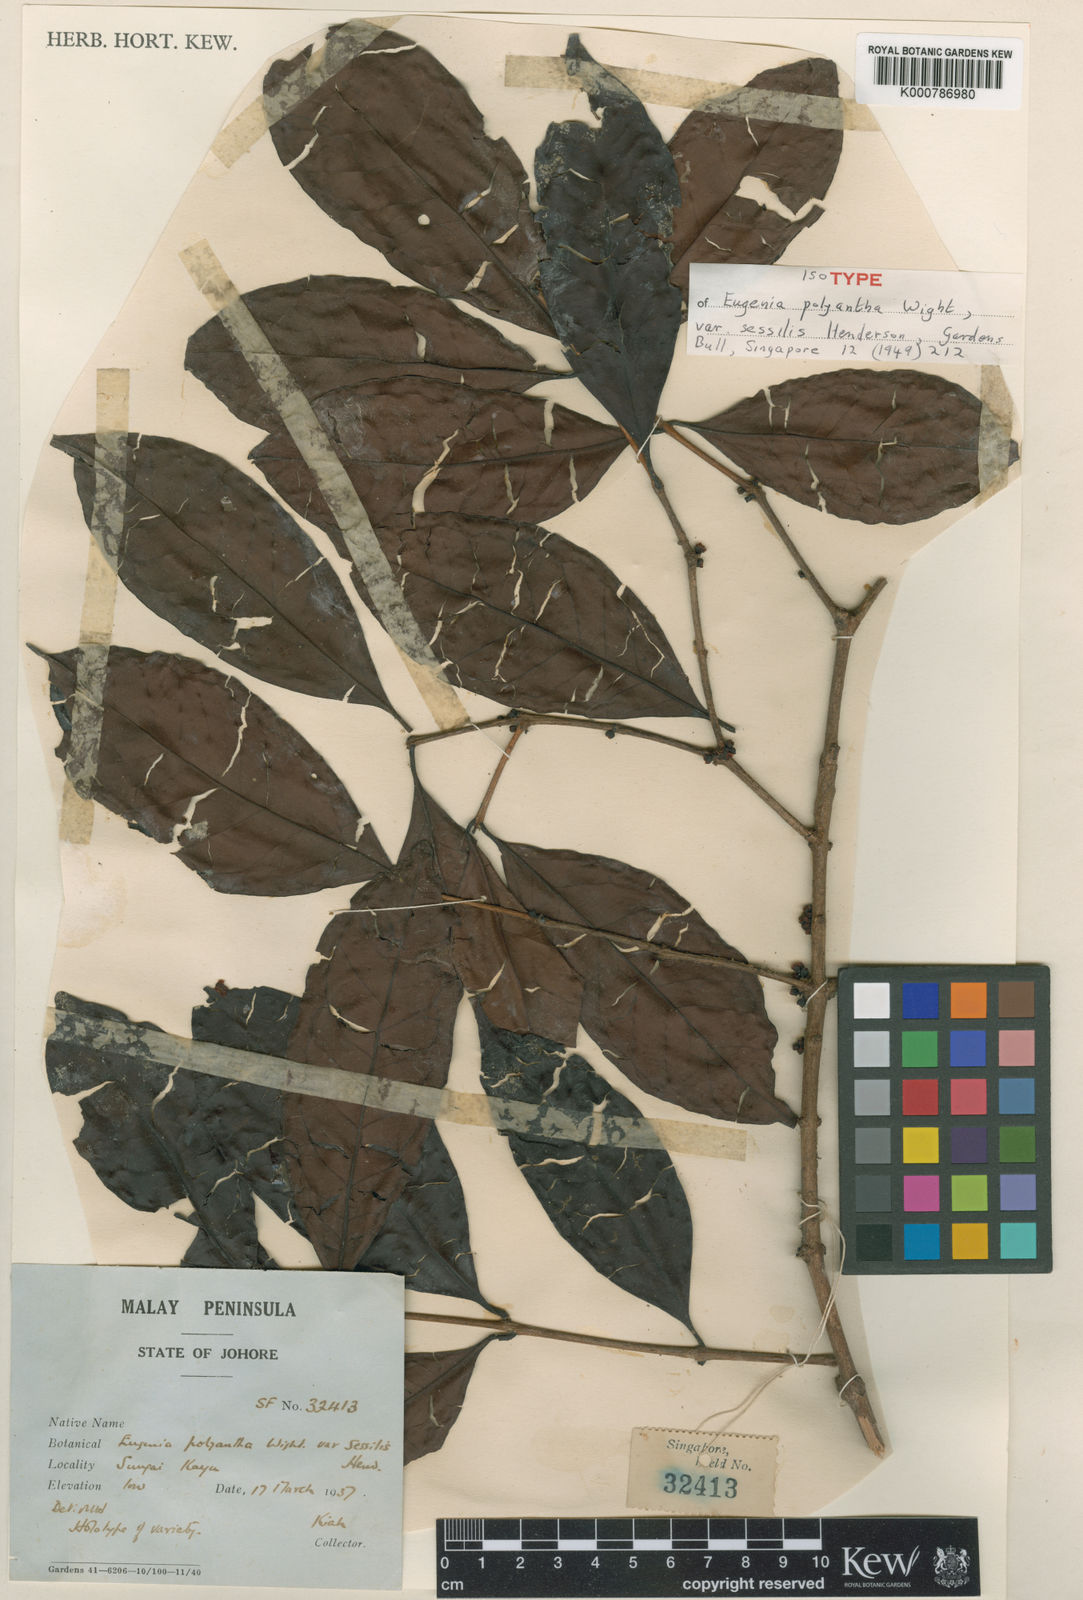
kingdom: Plantae
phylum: Tracheophyta
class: Magnoliopsida
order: Myrtales
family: Myrtaceae
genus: Syzygium
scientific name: Syzygium polyanthum
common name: Indonesian bayleaf
